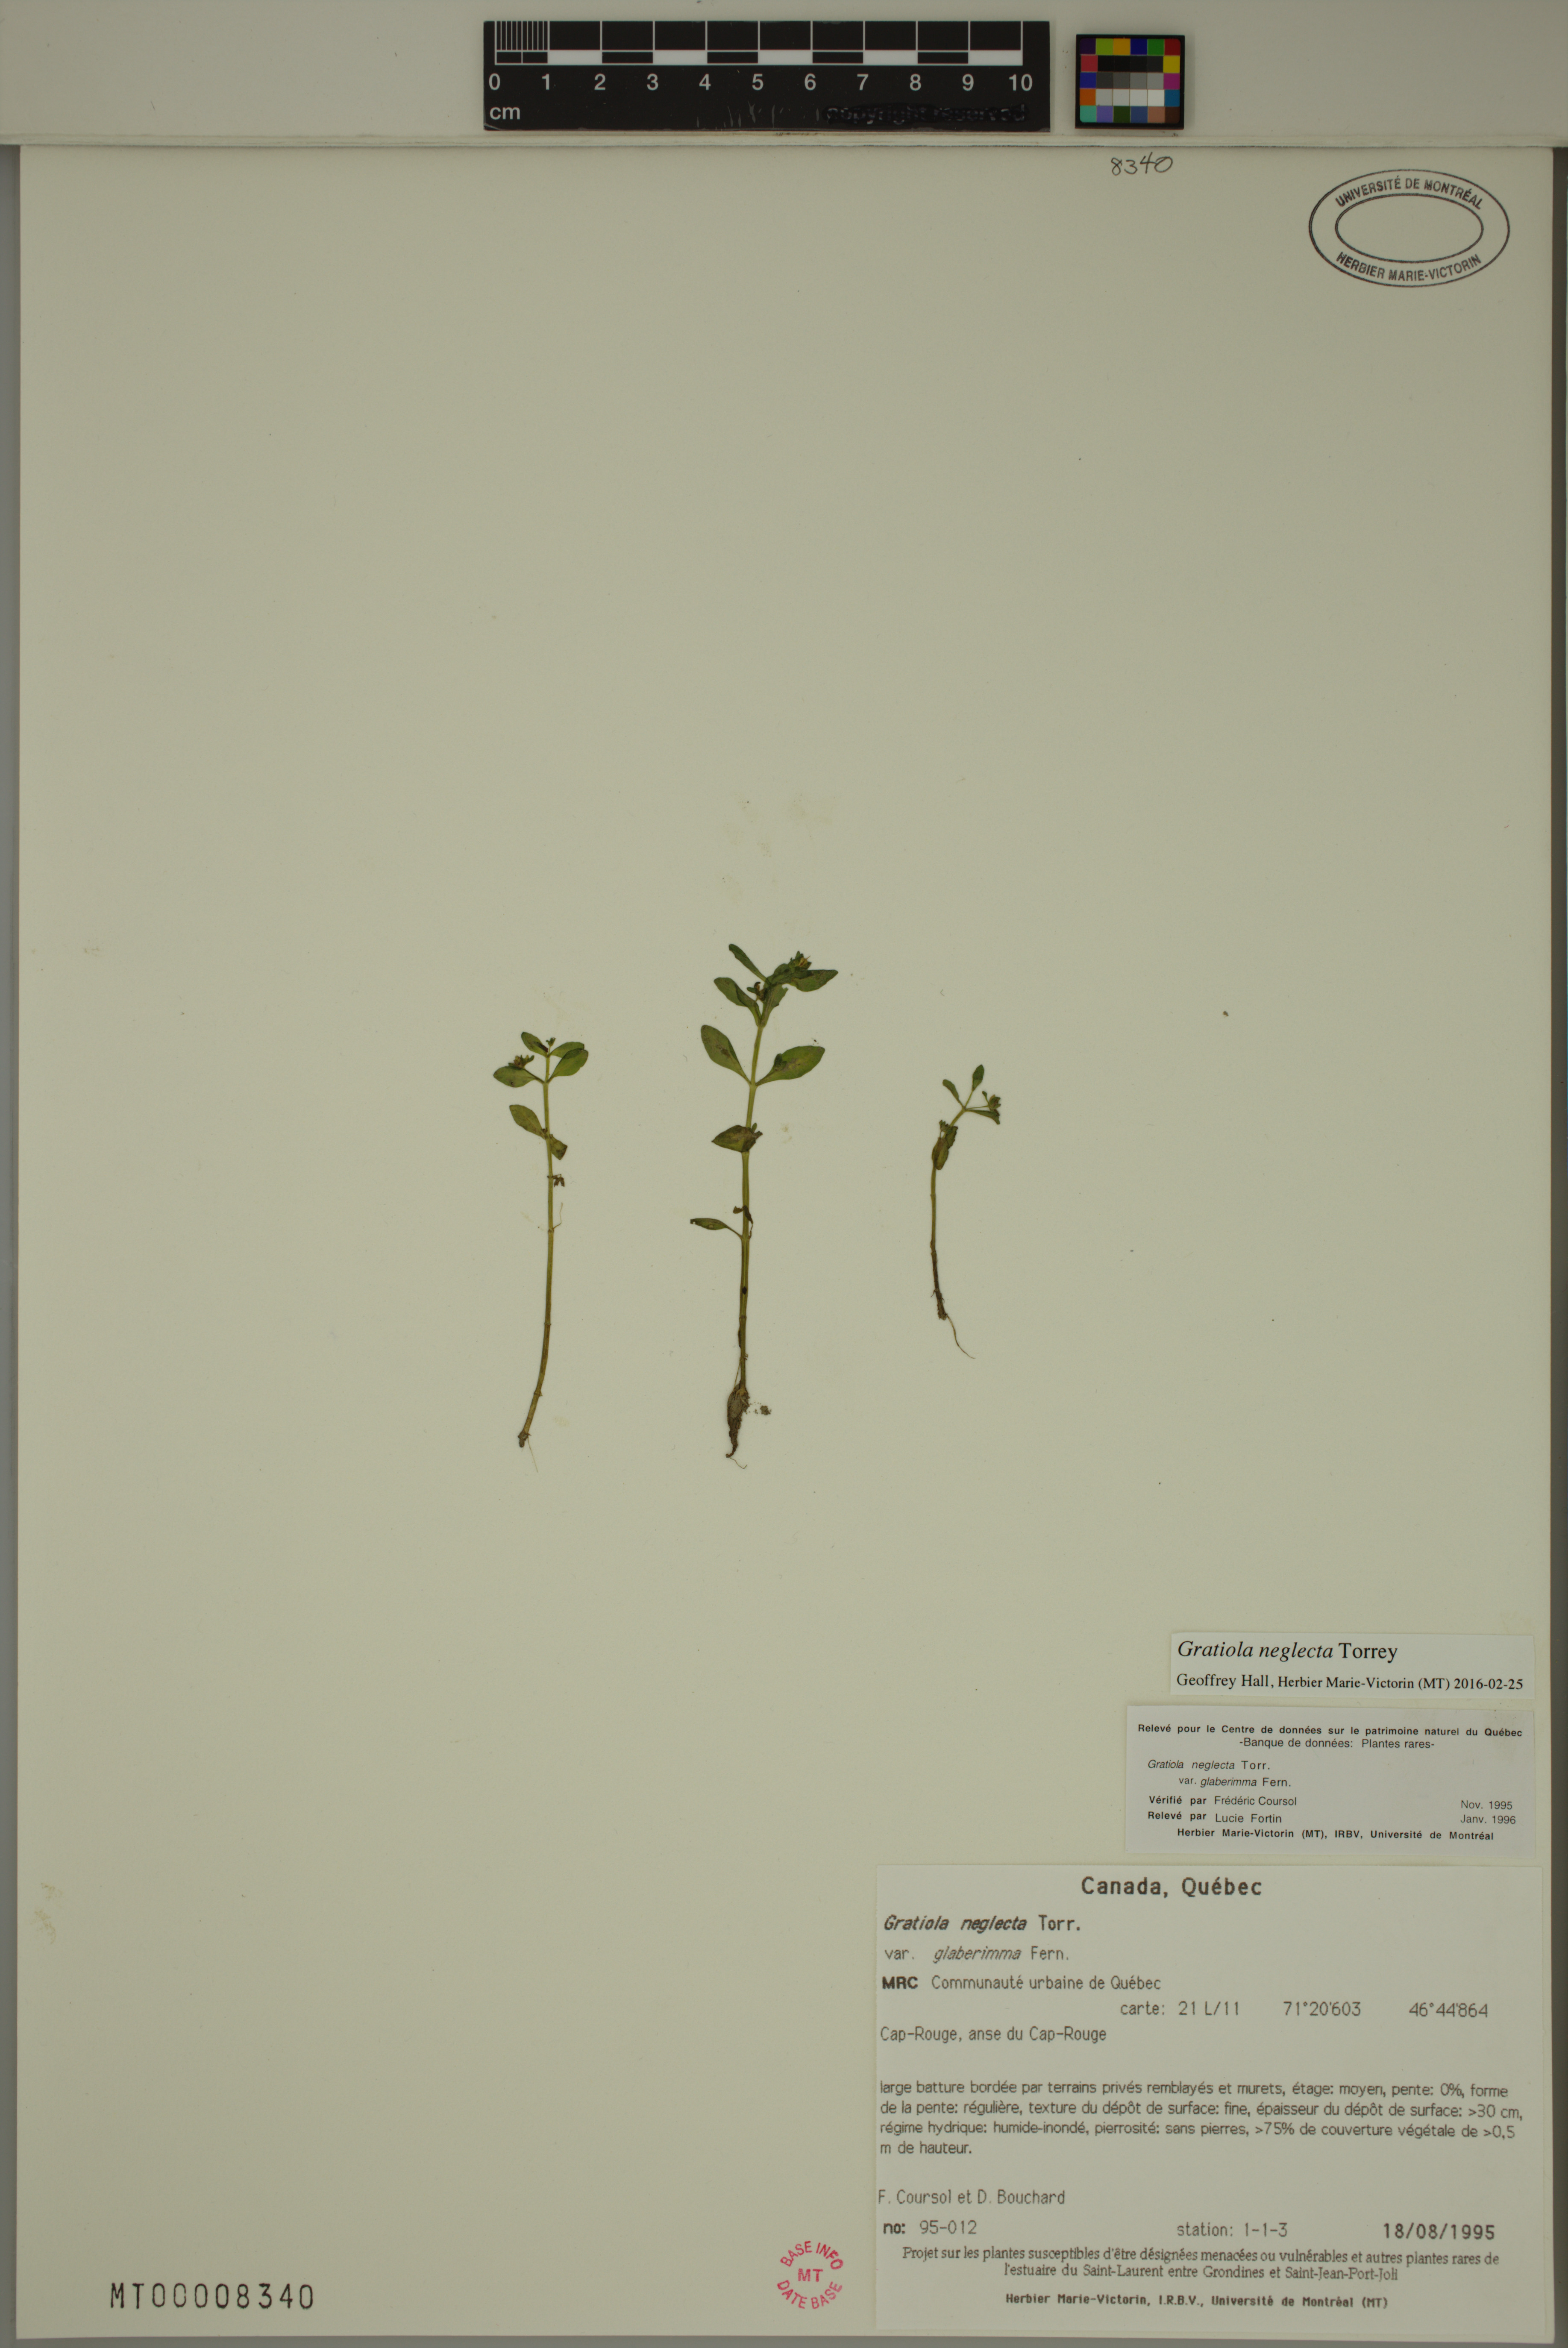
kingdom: Plantae
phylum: Tracheophyta
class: Magnoliopsida
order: Lamiales
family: Plantaginaceae
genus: Gratiola
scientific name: Gratiola neglecta
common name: American hedge-hyssop
